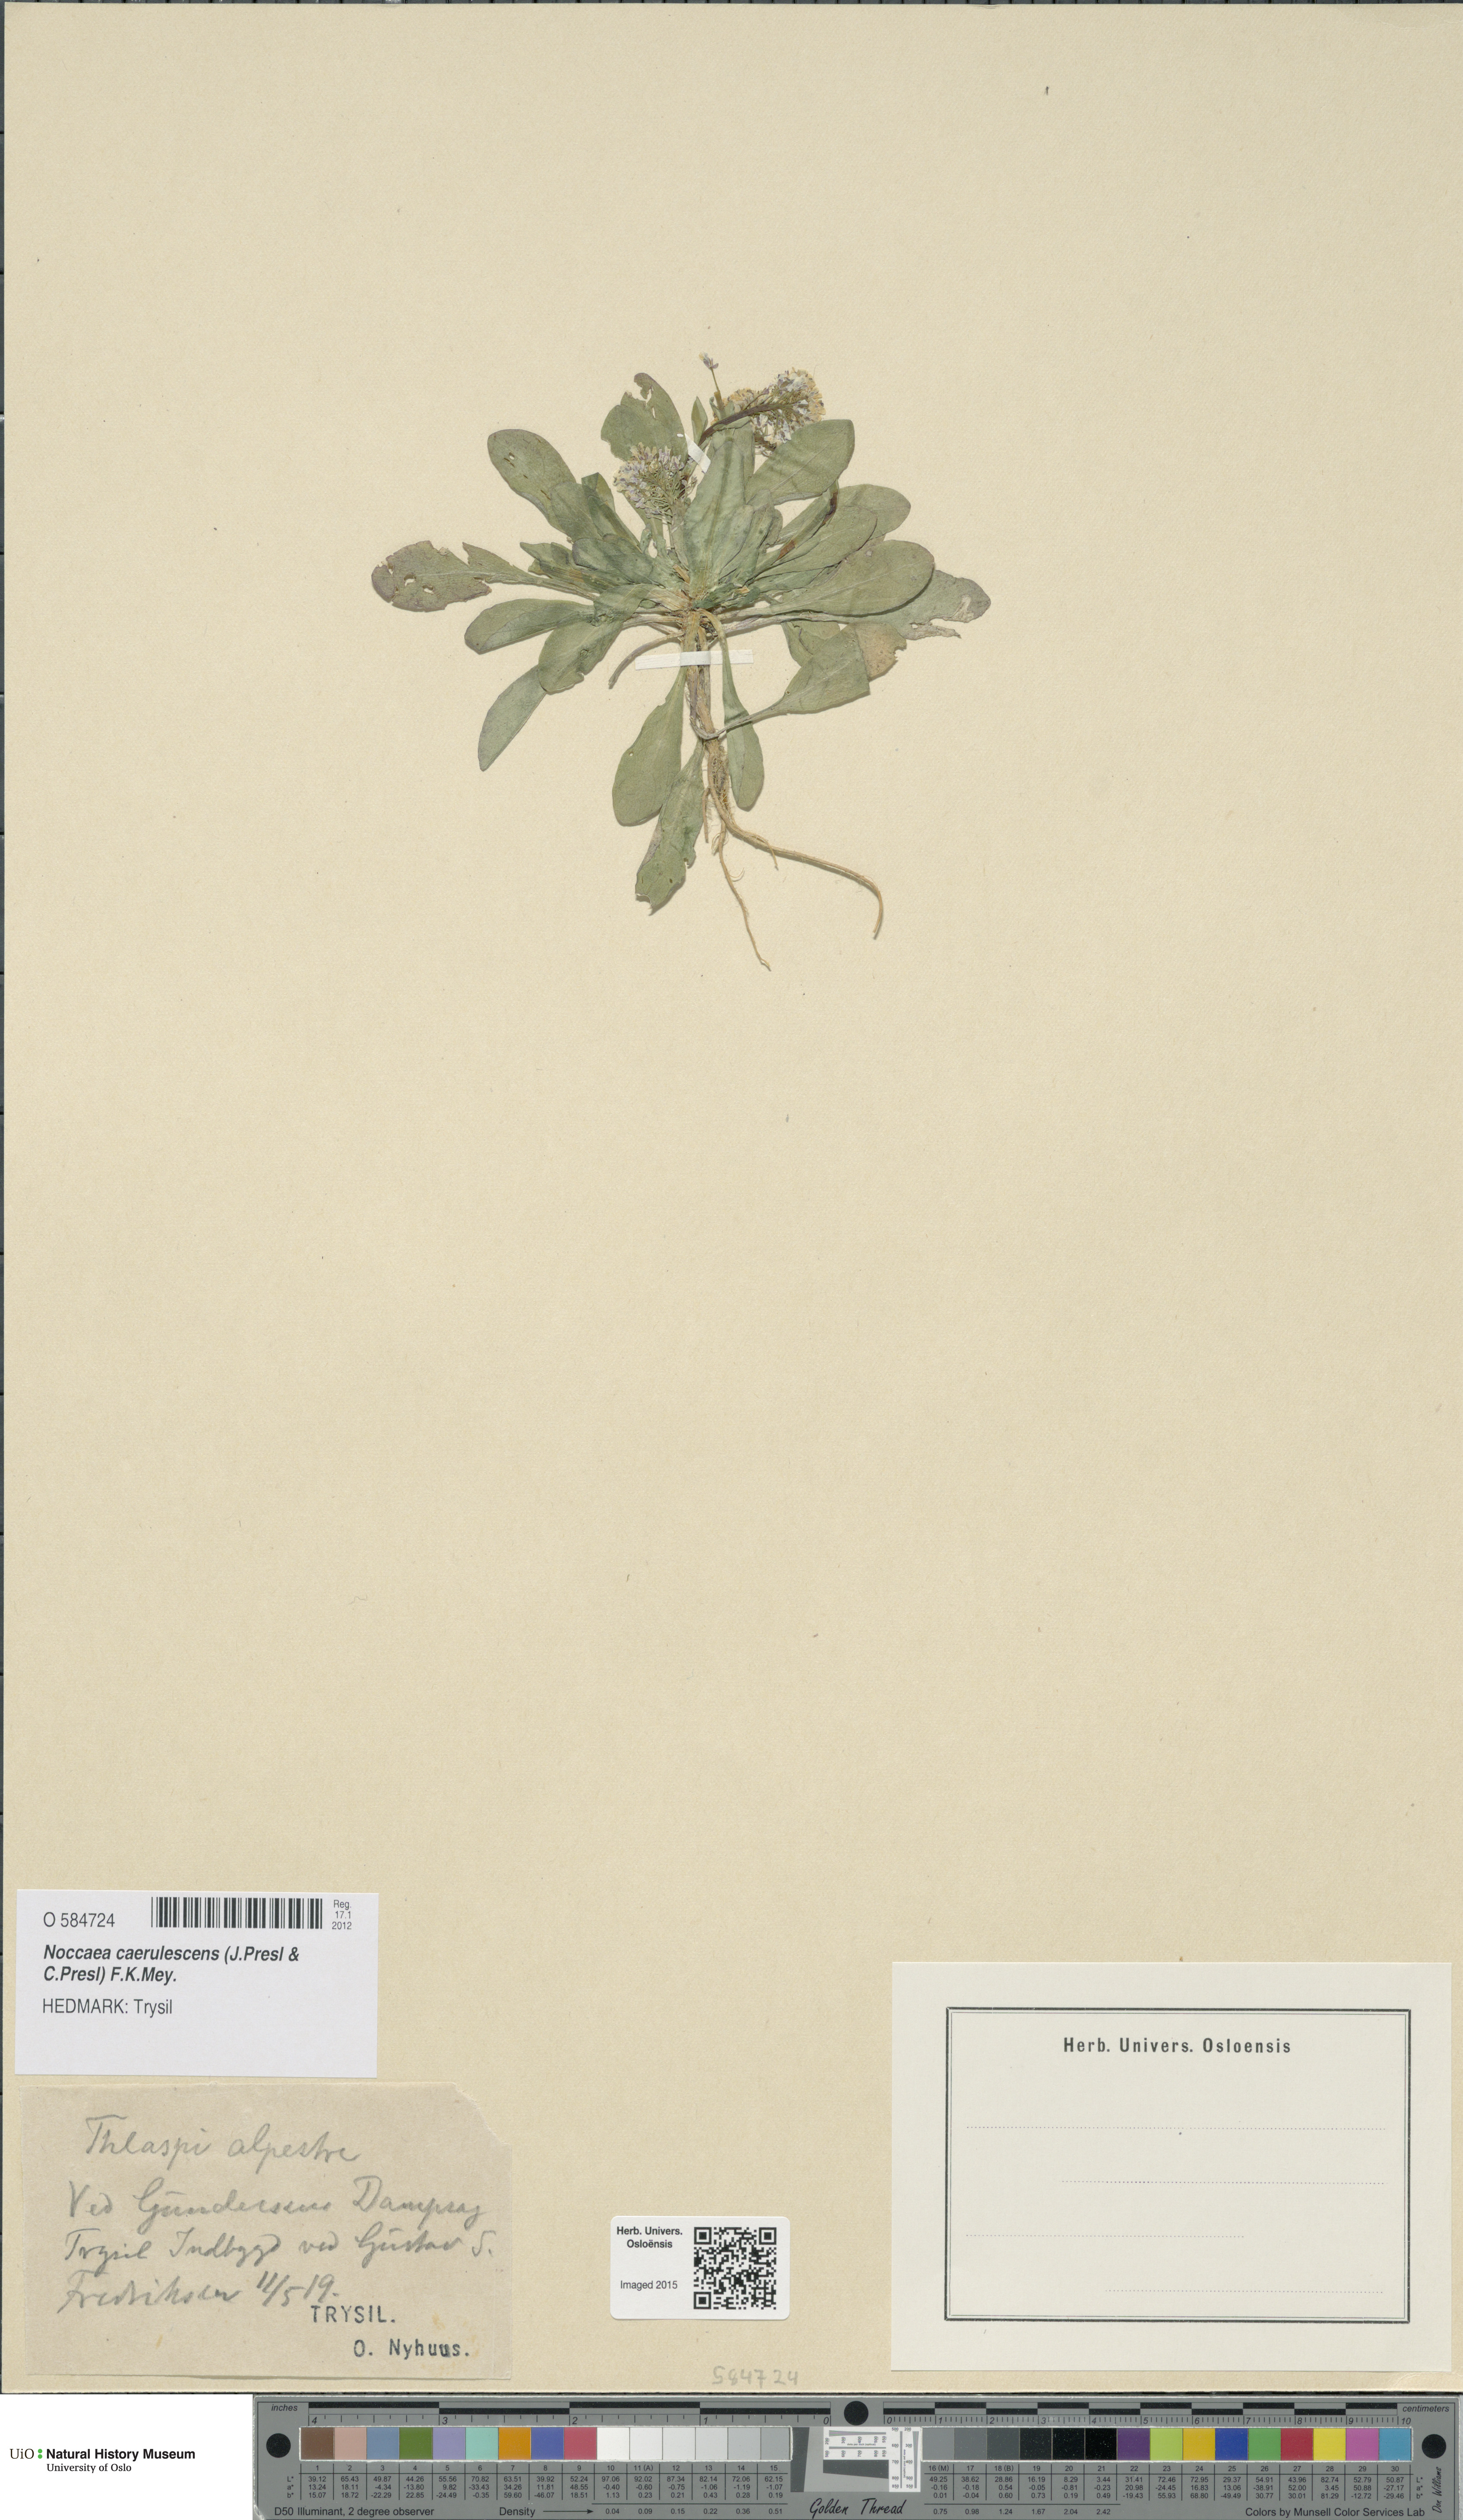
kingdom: Plantae
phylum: Tracheophyta
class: Magnoliopsida
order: Brassicales
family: Brassicaceae
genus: Noccaea
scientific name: Noccaea caerulescens
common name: Alpine pennycress
